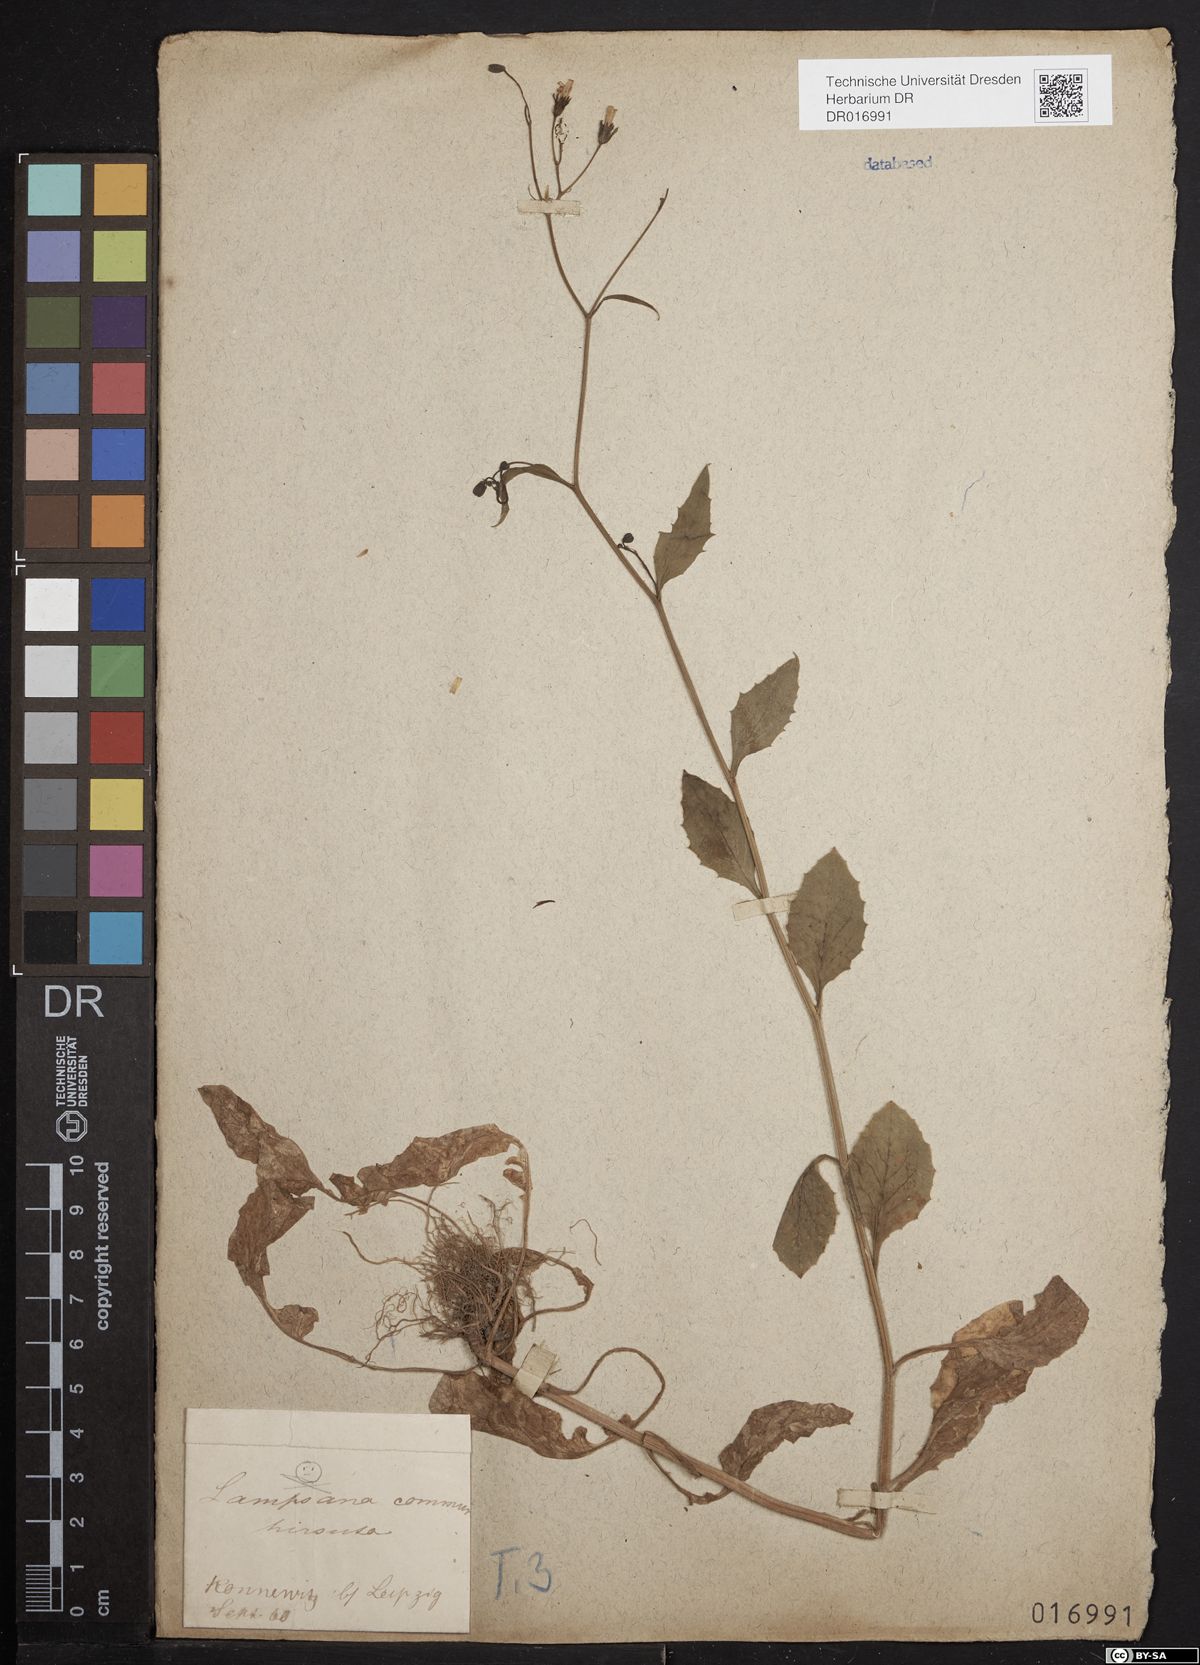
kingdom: Plantae
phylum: Tracheophyta
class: Magnoliopsida
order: Asterales
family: Asteraceae
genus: Lapsana
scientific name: Lapsana communis
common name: Nipplewort
